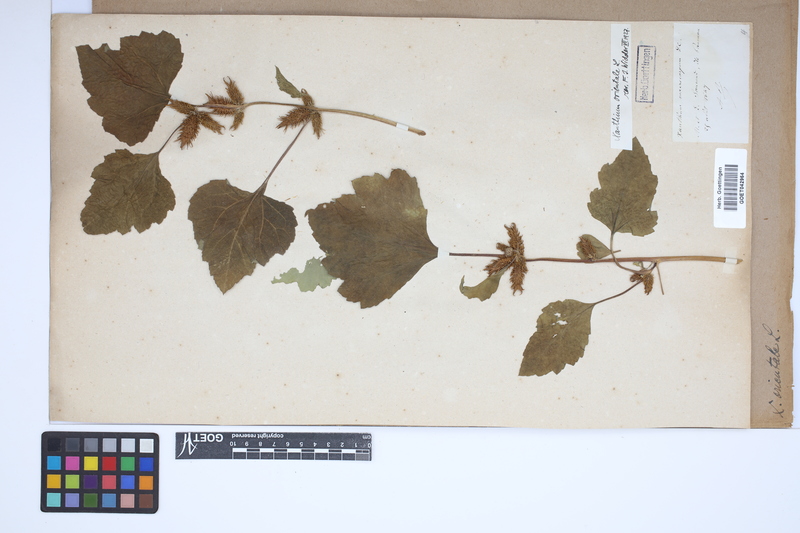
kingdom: Plantae
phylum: Tracheophyta
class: Magnoliopsida
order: Asterales
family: Asteraceae
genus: Xanthium
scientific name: Xanthium orientale
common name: Californian burr
